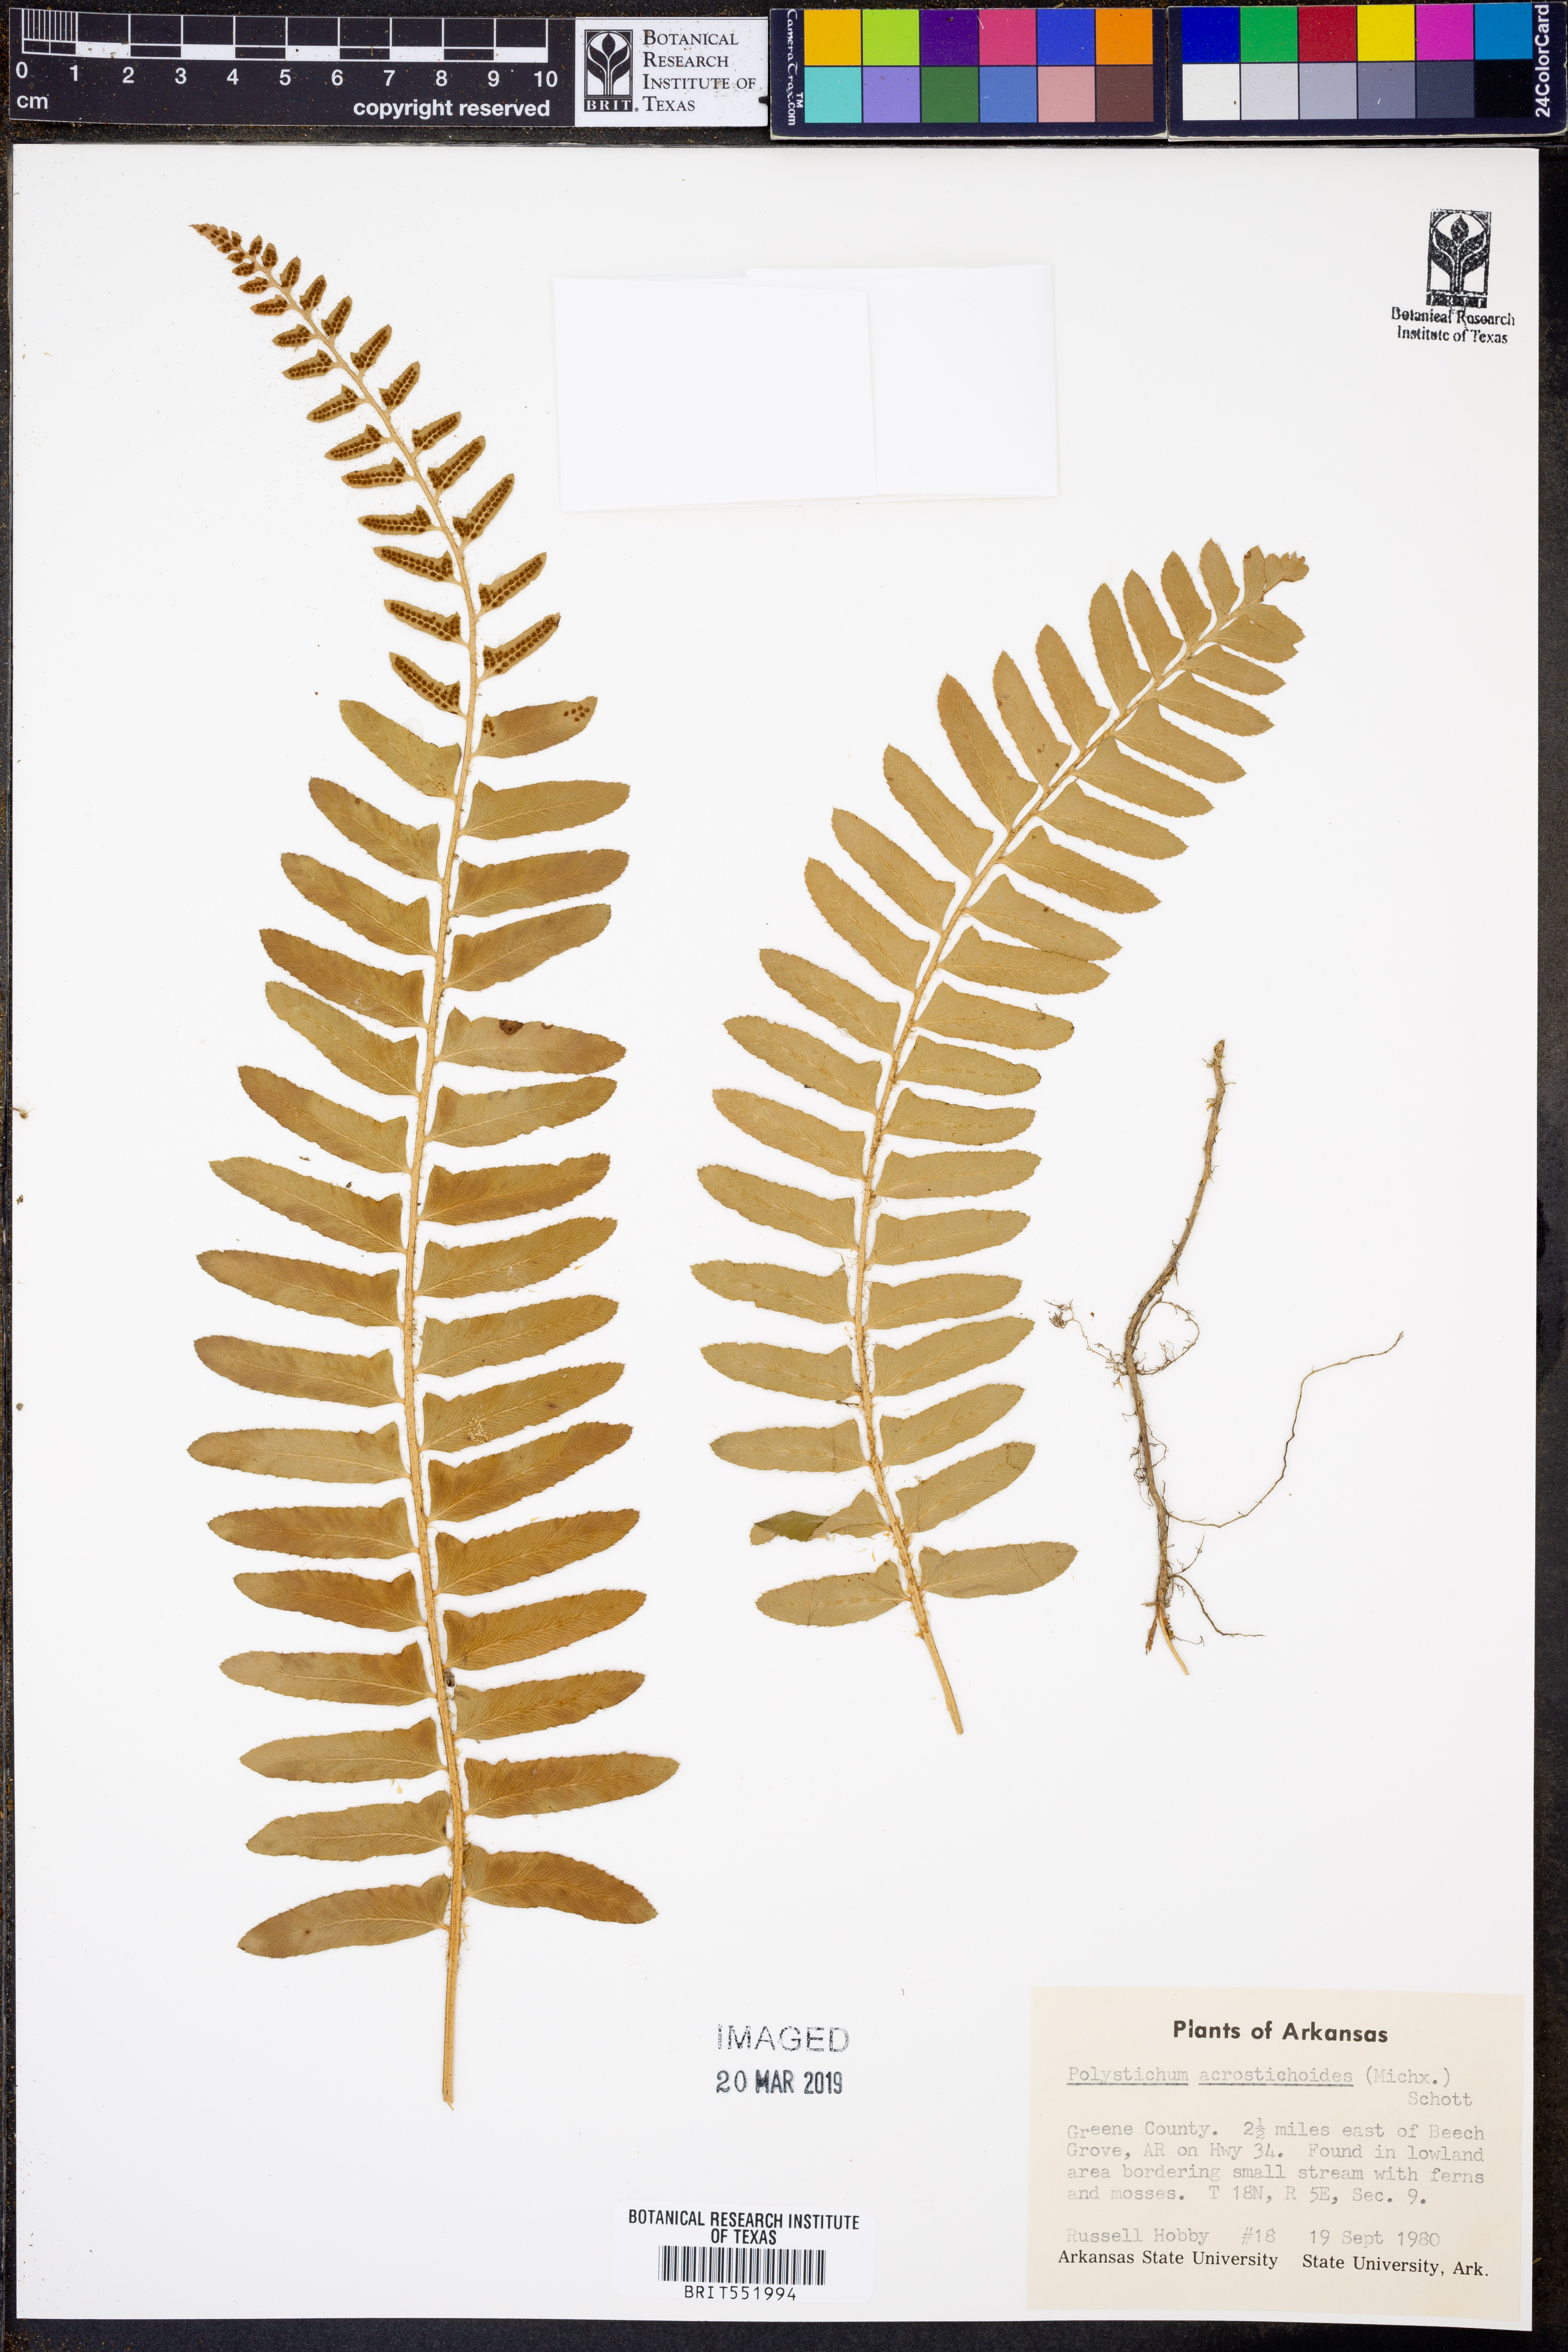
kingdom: Plantae
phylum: Tracheophyta
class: Polypodiopsida
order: Polypodiales
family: Dryopteridaceae
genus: Polystichum
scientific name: Polystichum acrostichoides
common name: Christmas fern
